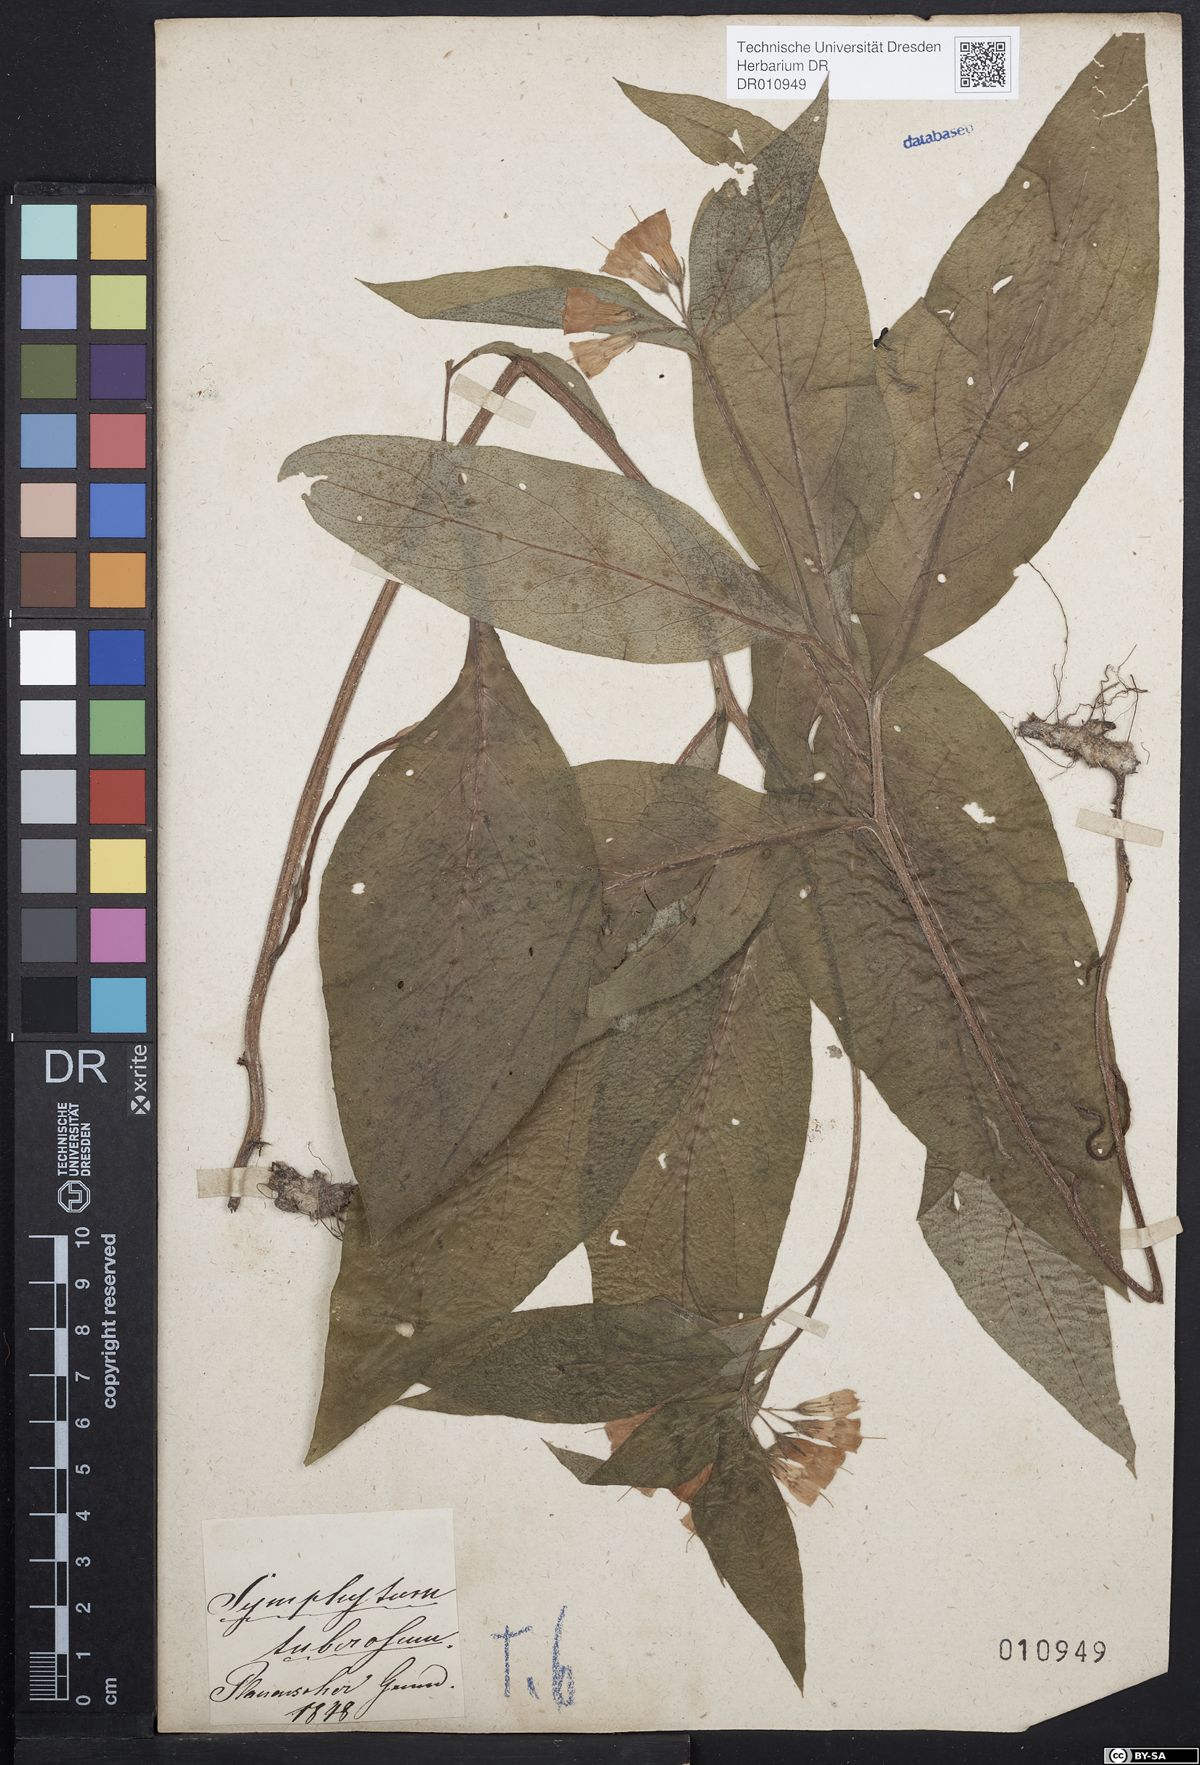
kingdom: Plantae
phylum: Tracheophyta
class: Magnoliopsida
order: Boraginales
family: Boraginaceae
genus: Symphytum
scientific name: Symphytum tuberosum
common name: Tuberous comfrey
